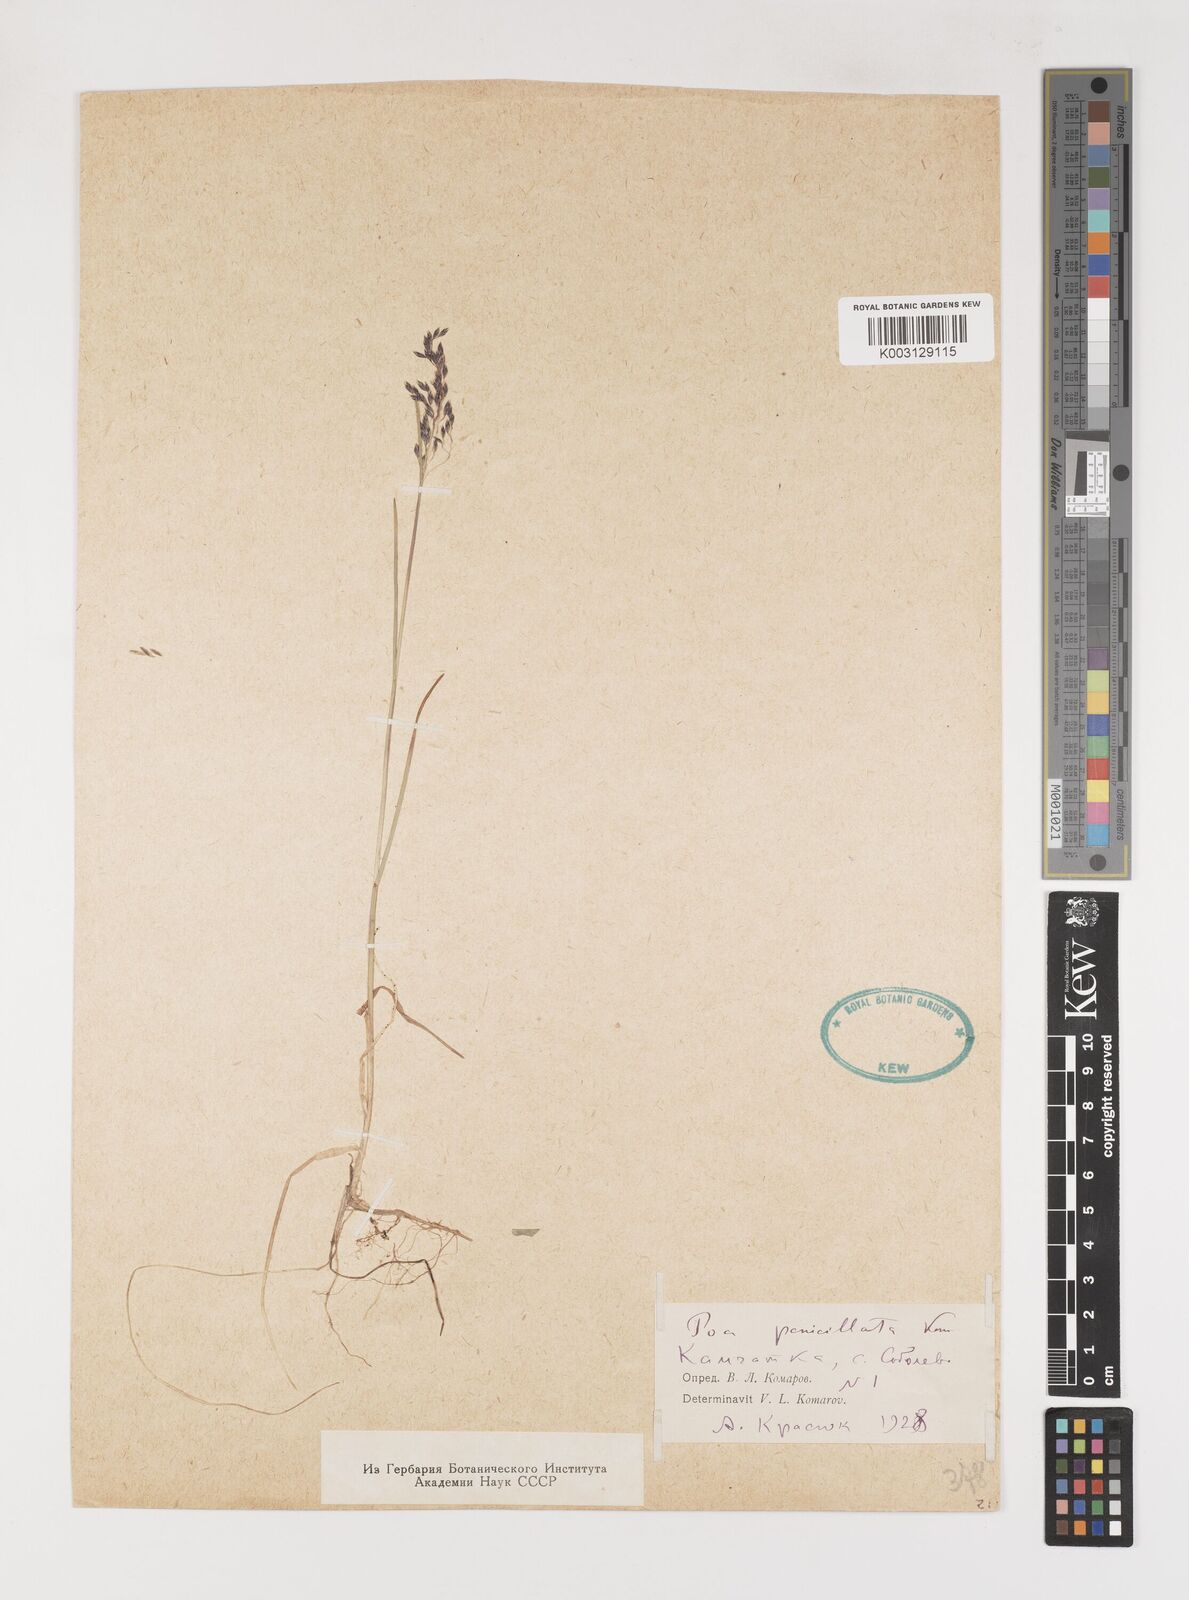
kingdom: Plantae
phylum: Tracheophyta
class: Liliopsida
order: Poales
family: Poaceae
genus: Poa
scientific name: Poa platyantha
